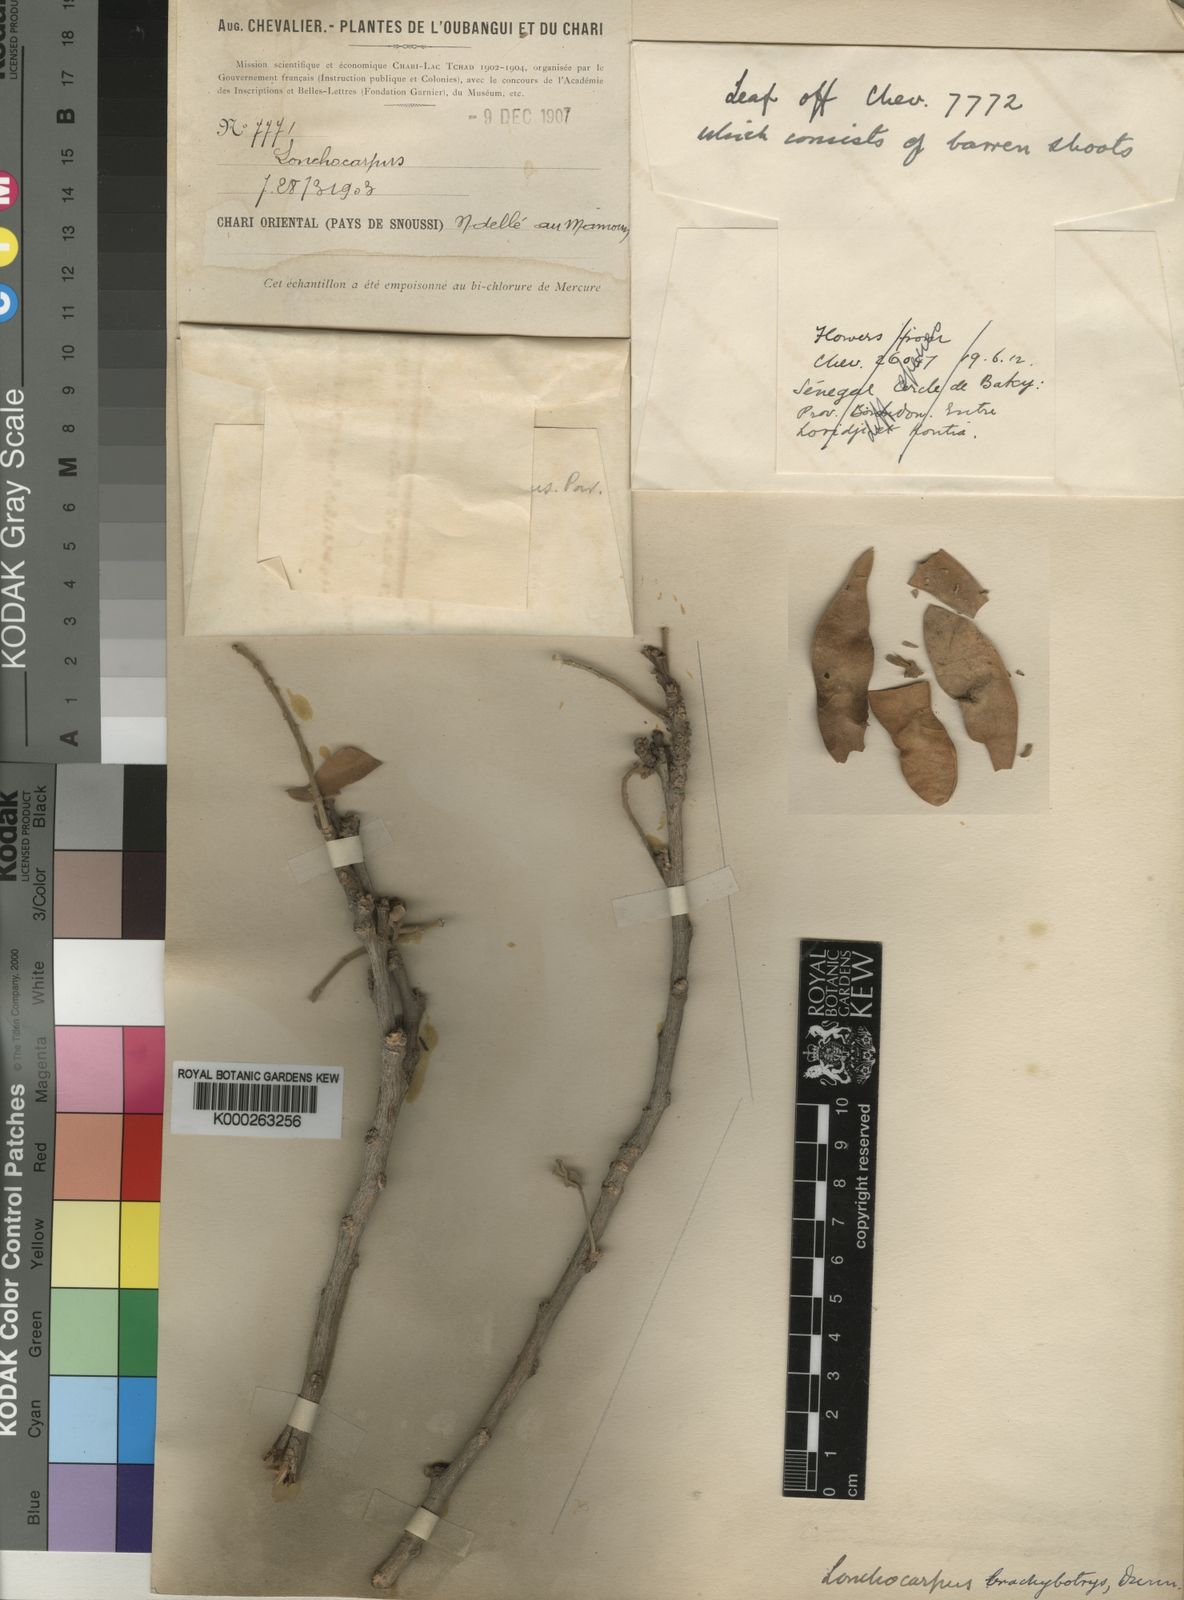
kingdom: Plantae
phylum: Tracheophyta
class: Magnoliopsida
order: Fabales
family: Fabaceae
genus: Philenoptera
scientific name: Philenoptera eriocalyx
